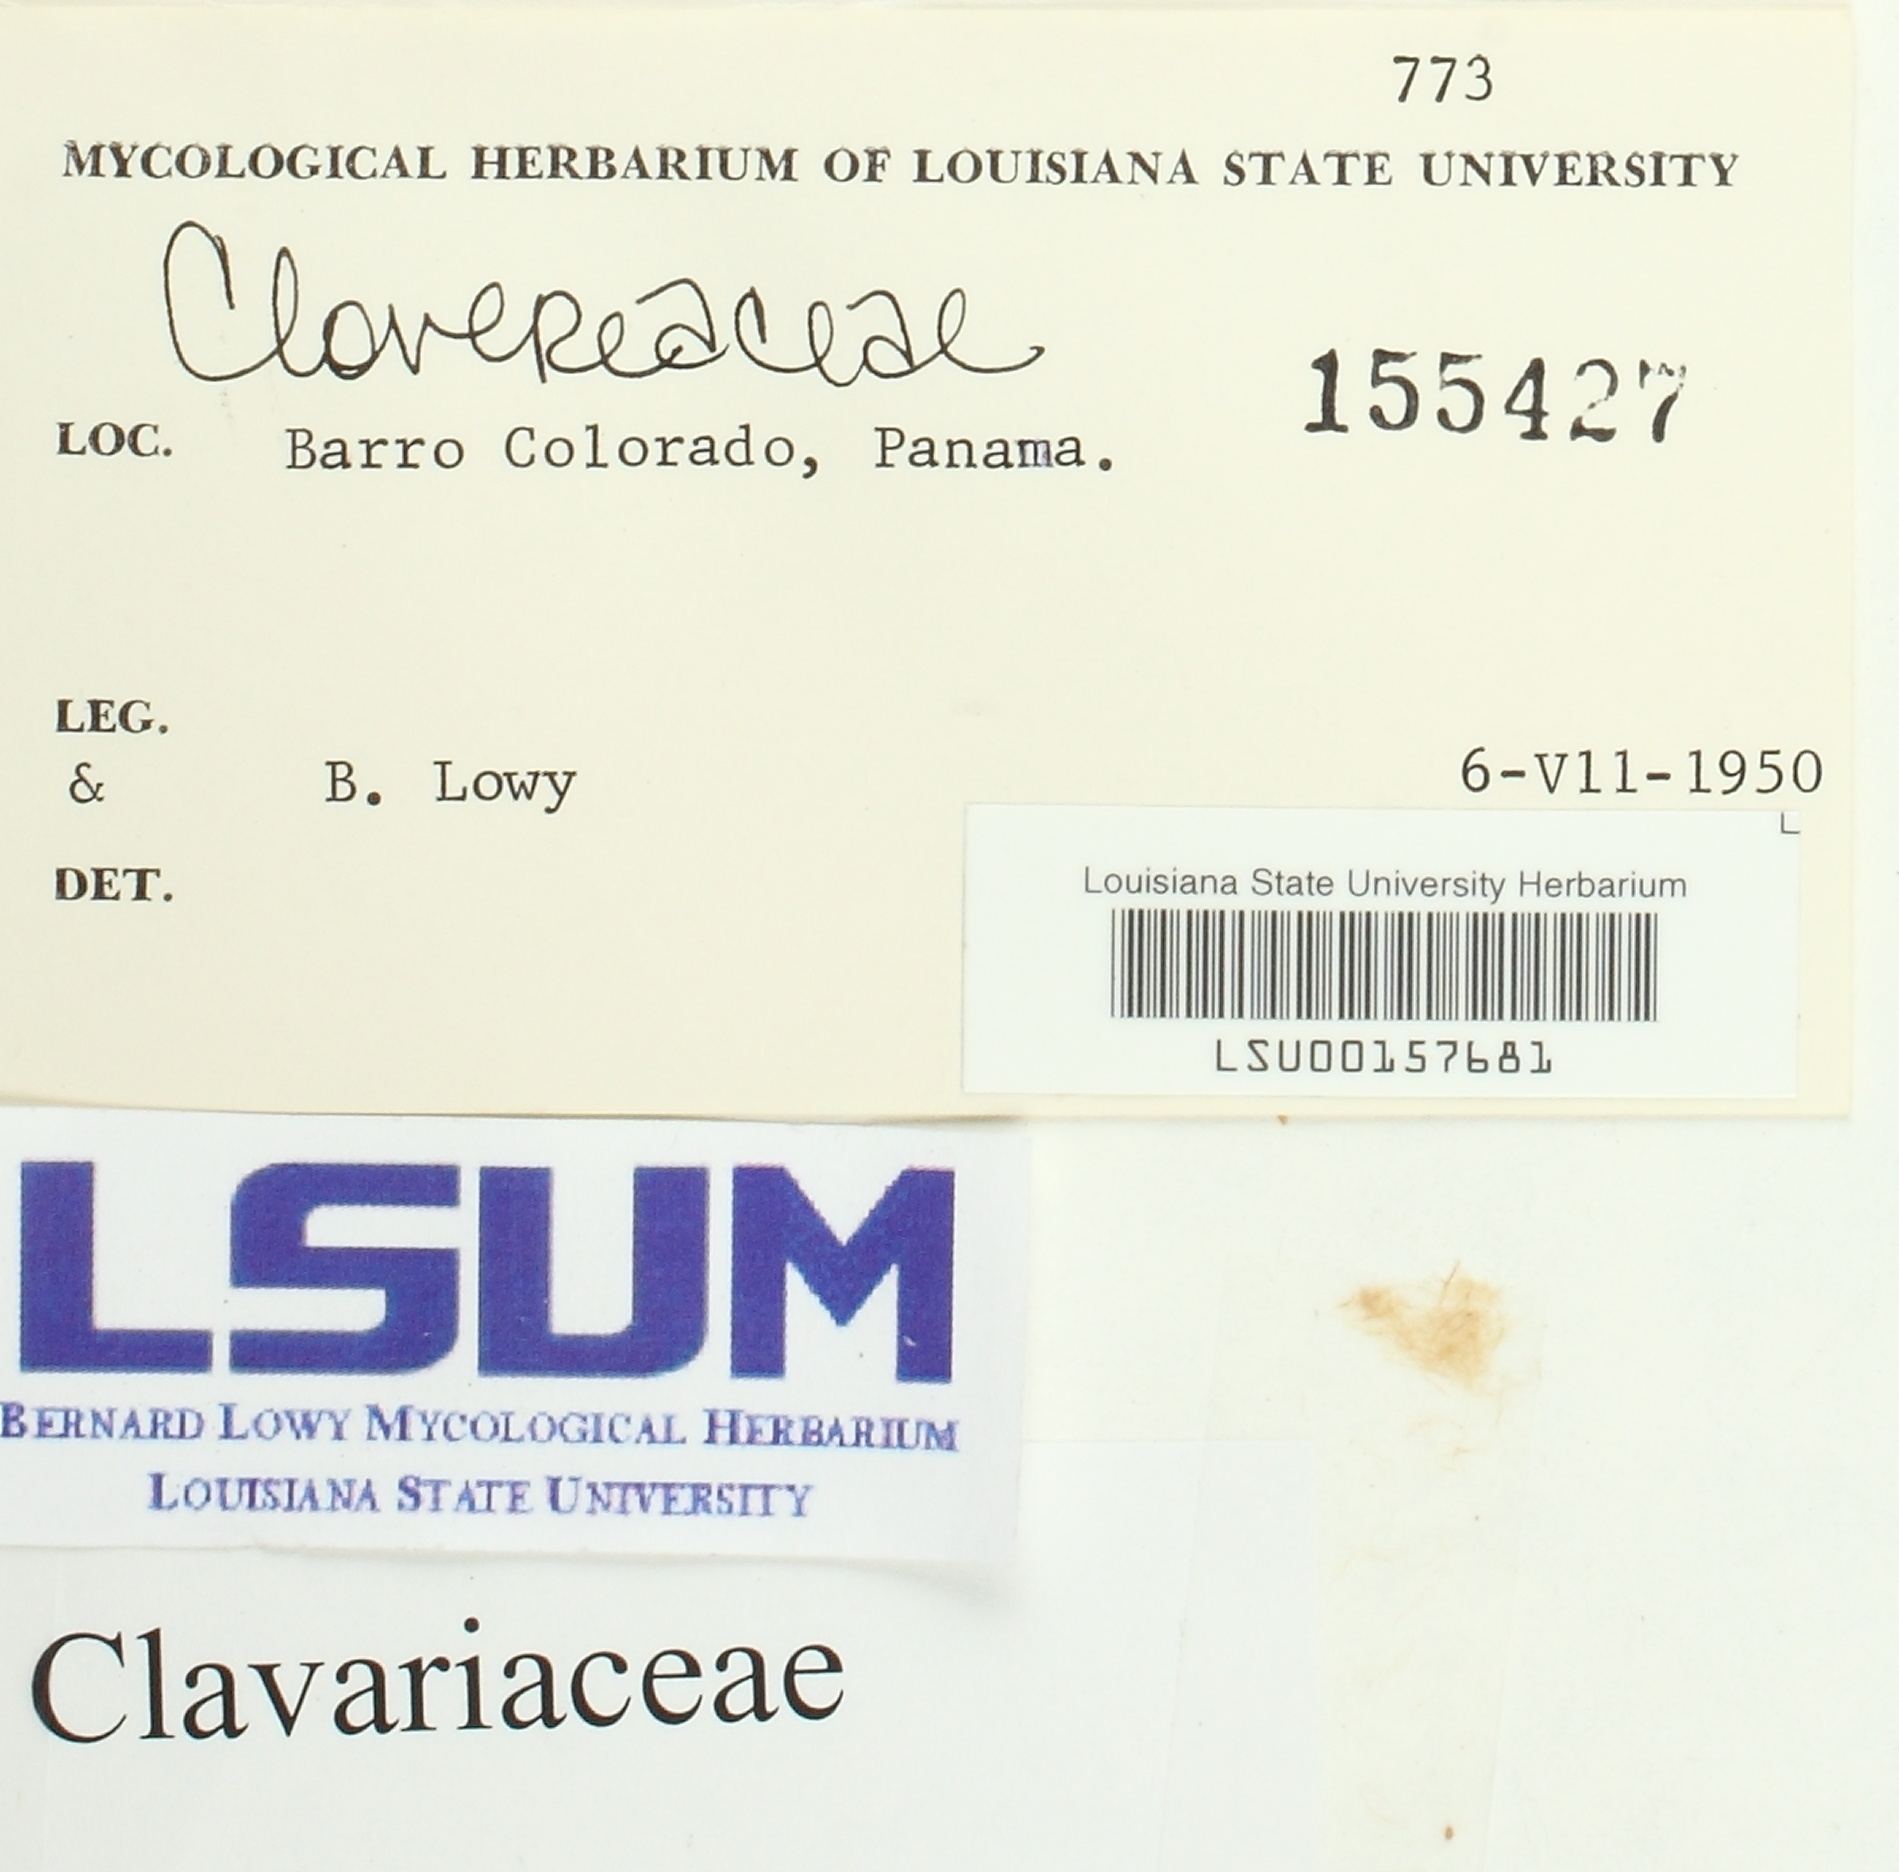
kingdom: Fungi
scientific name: Fungi
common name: Fungi
